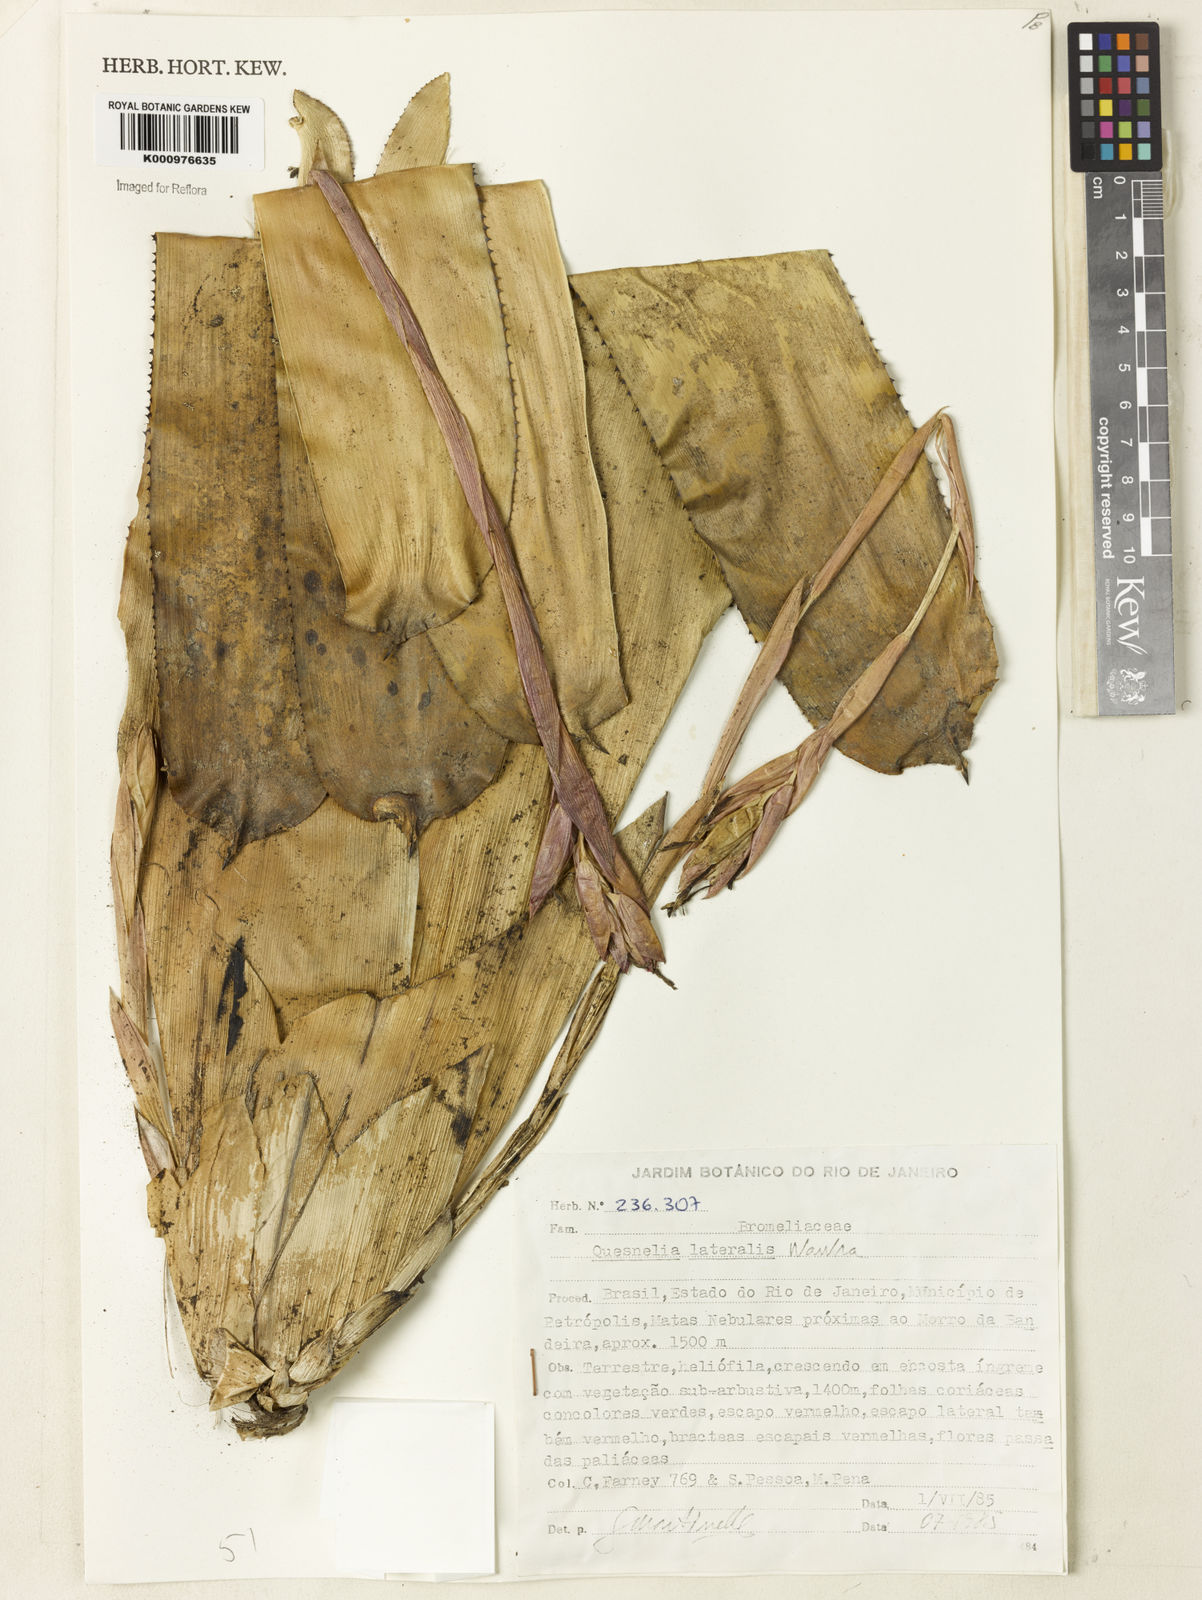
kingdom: Plantae
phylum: Tracheophyta
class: Liliopsida
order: Poales
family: Bromeliaceae
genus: Quesnelia
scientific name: Quesnelia lateralis
